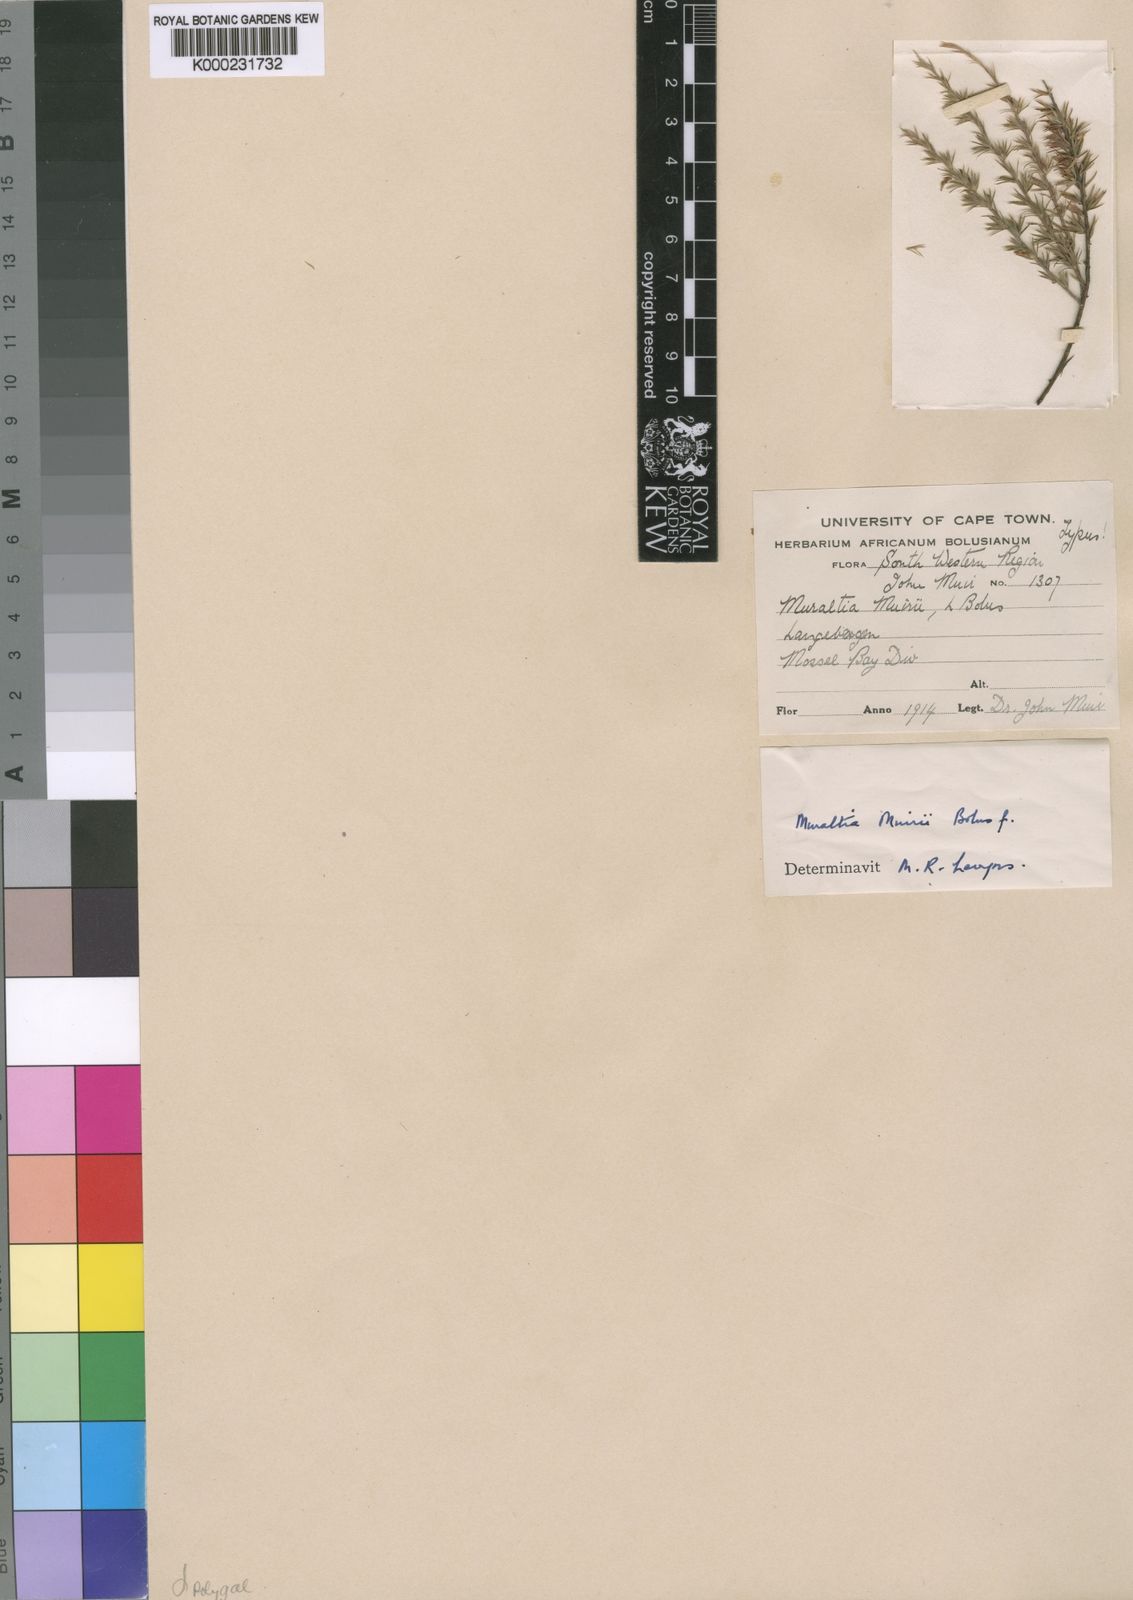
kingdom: Plantae
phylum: Tracheophyta
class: Magnoliopsida
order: Fabales
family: Polygalaceae
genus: Muraltia
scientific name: Muraltia muirii
